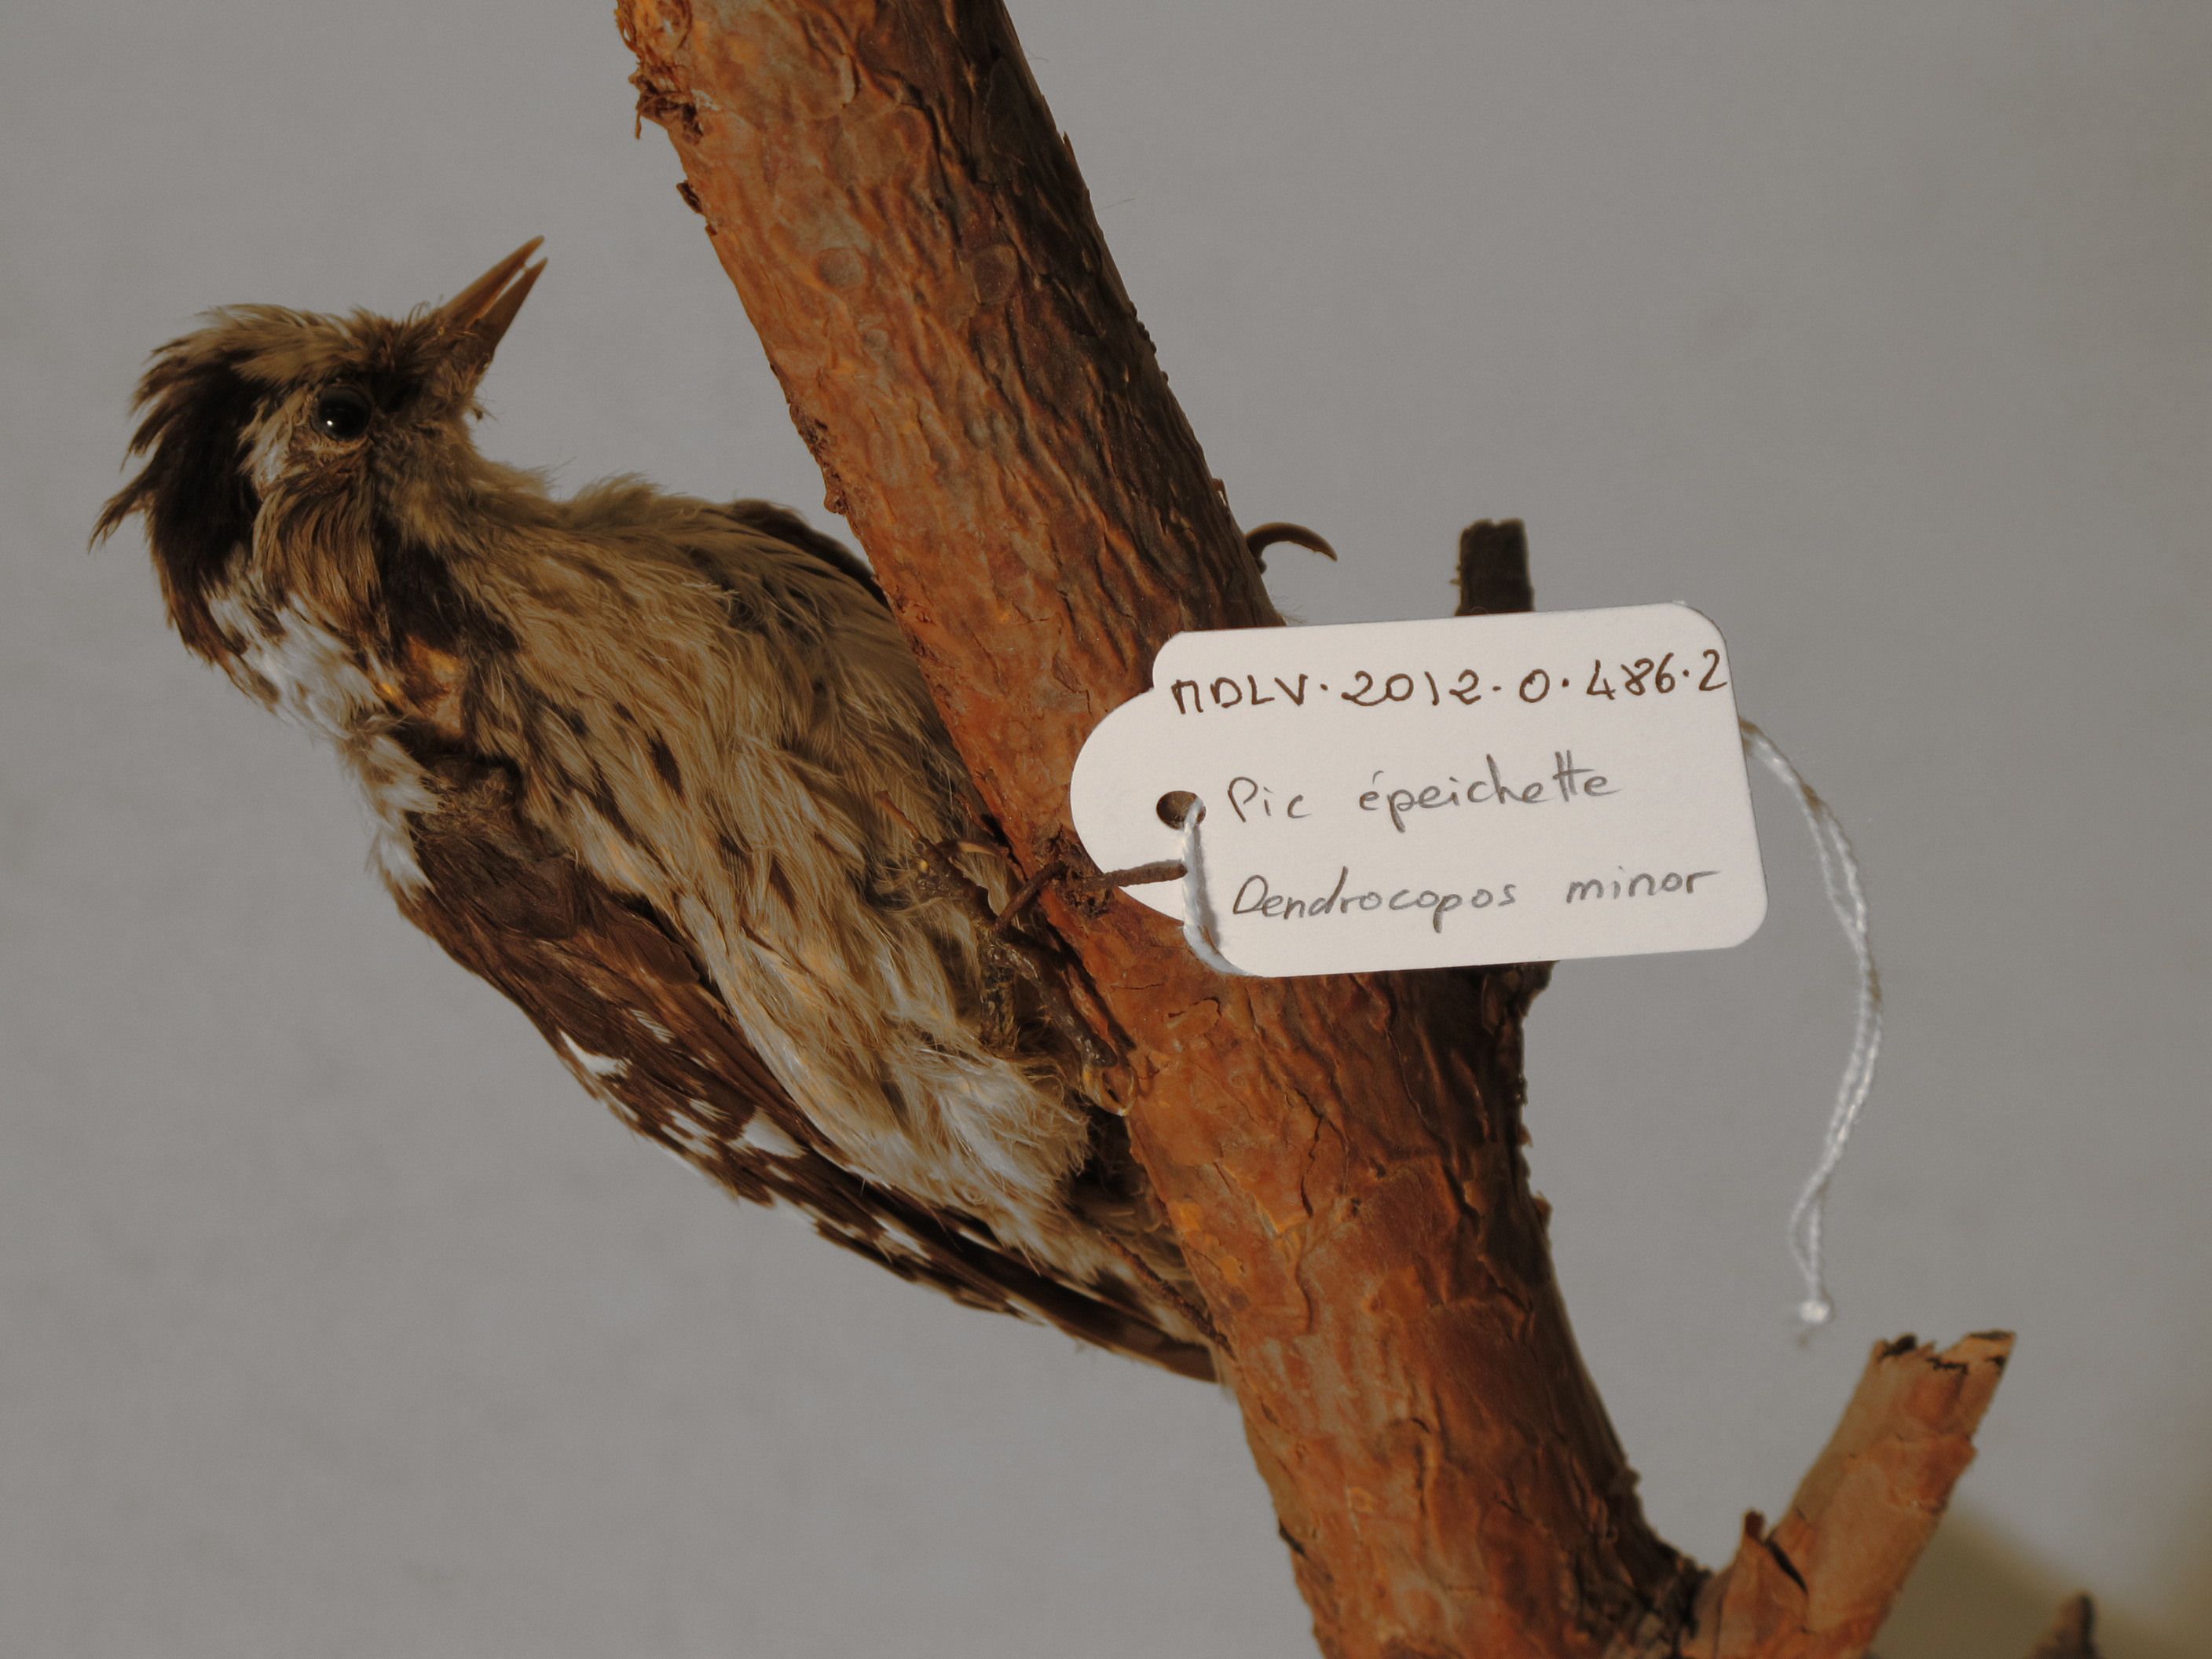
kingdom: Animalia
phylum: Chordata
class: Aves
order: Piciformes
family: Picidae
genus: Dryobates
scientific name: Dryobates minor
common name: Lesser Spotted Woodpecker
